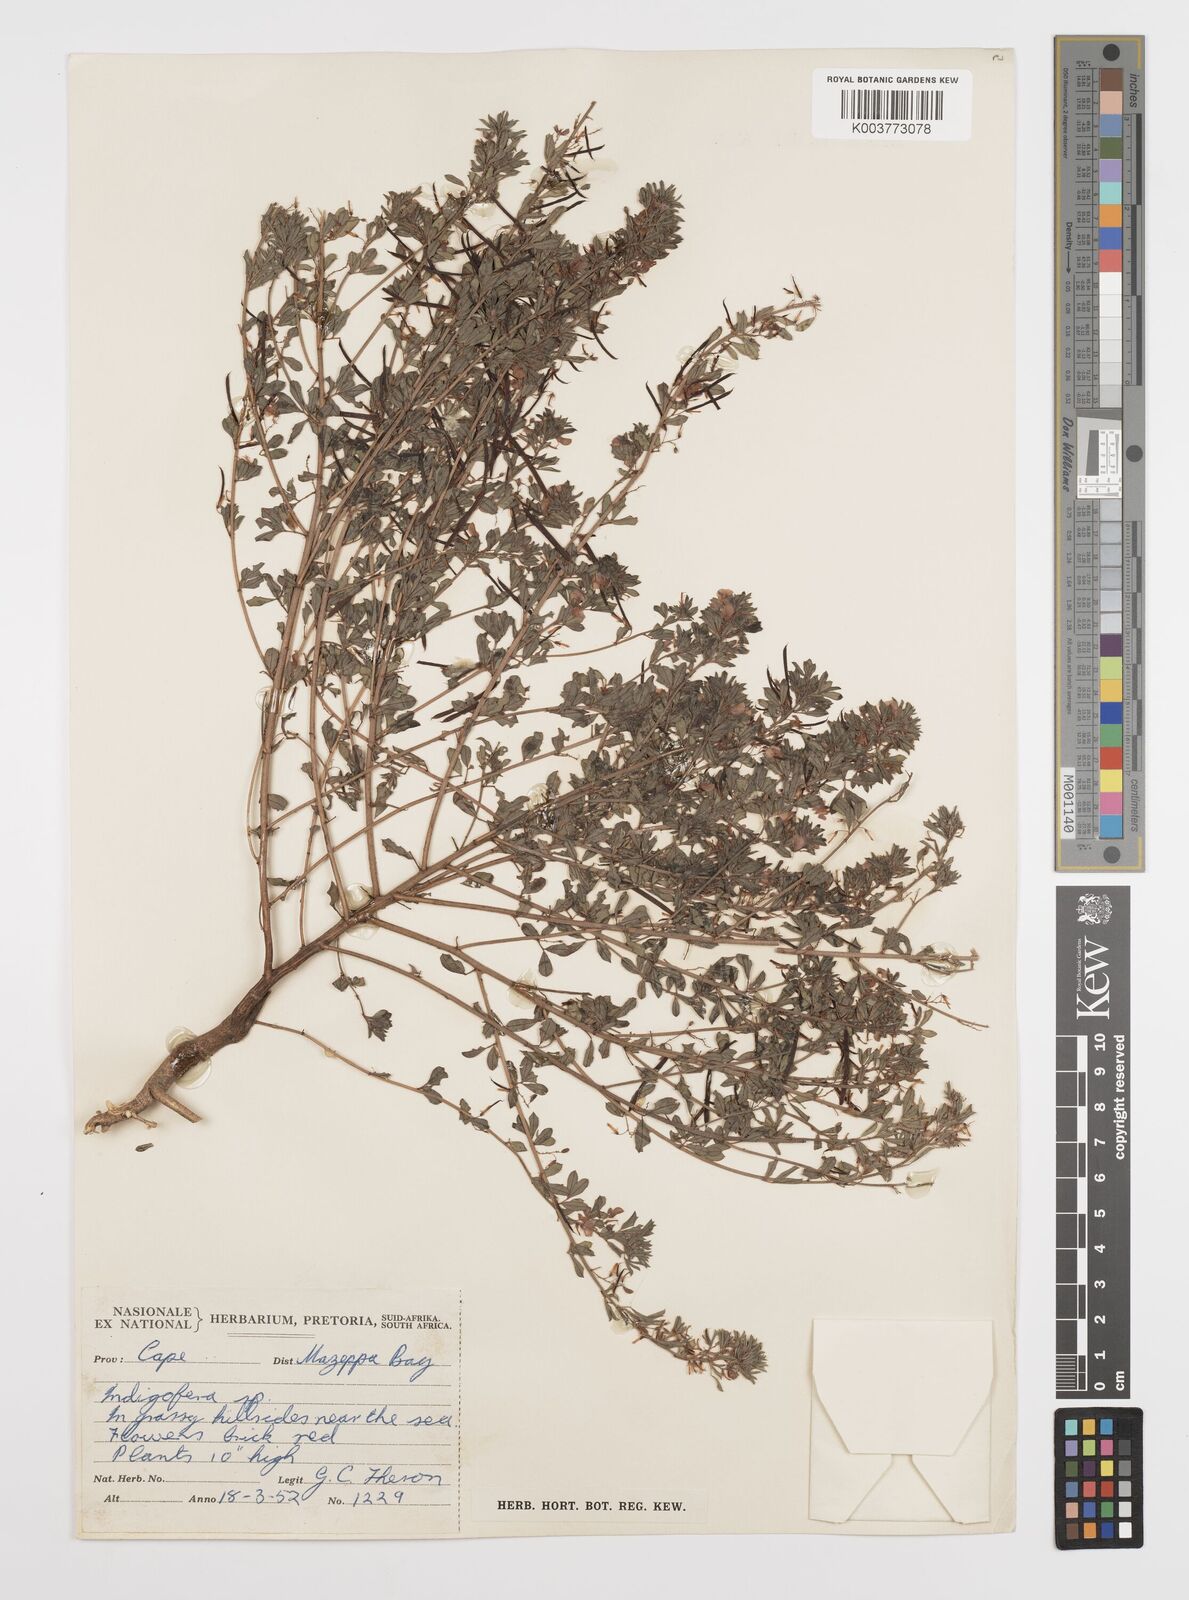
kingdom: Plantae
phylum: Tracheophyta
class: Magnoliopsida
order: Fabales
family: Fabaceae
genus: Indigofera
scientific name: Indigofera
